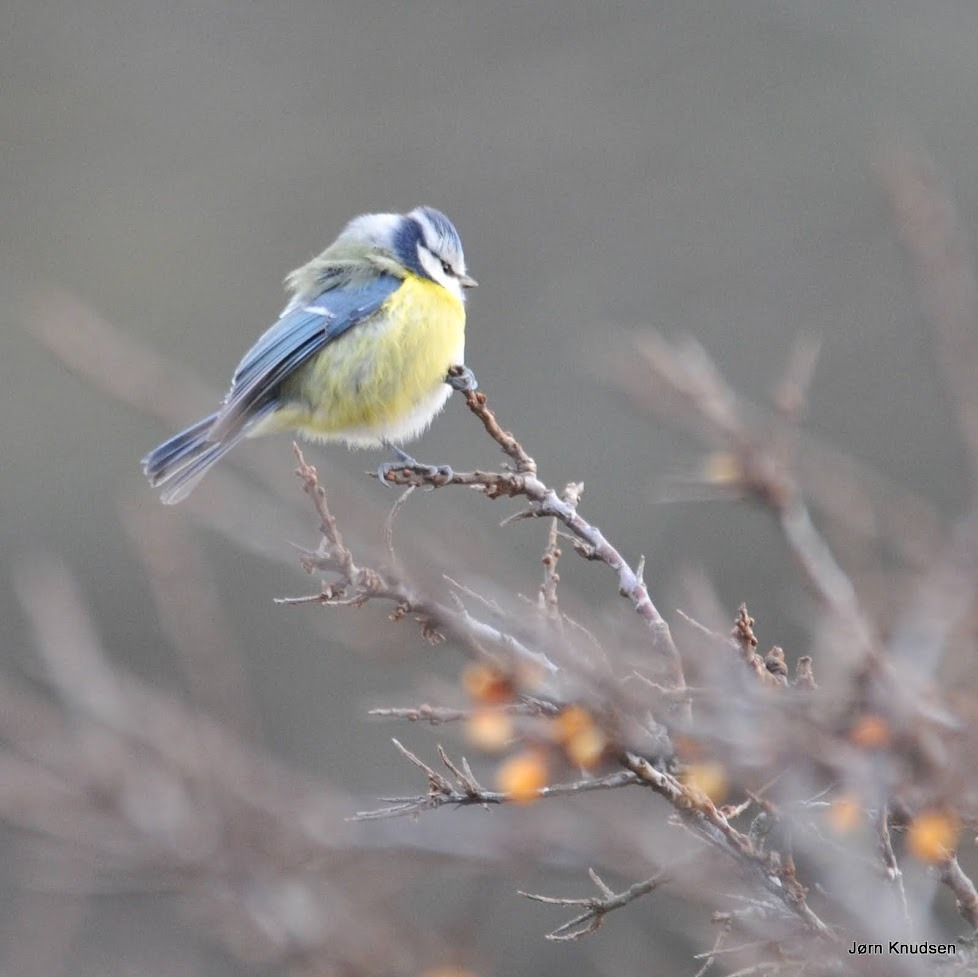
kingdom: Animalia
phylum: Chordata
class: Aves
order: Passeriformes
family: Paridae
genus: Cyanistes
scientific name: Cyanistes caeruleus
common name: Blåmejse
